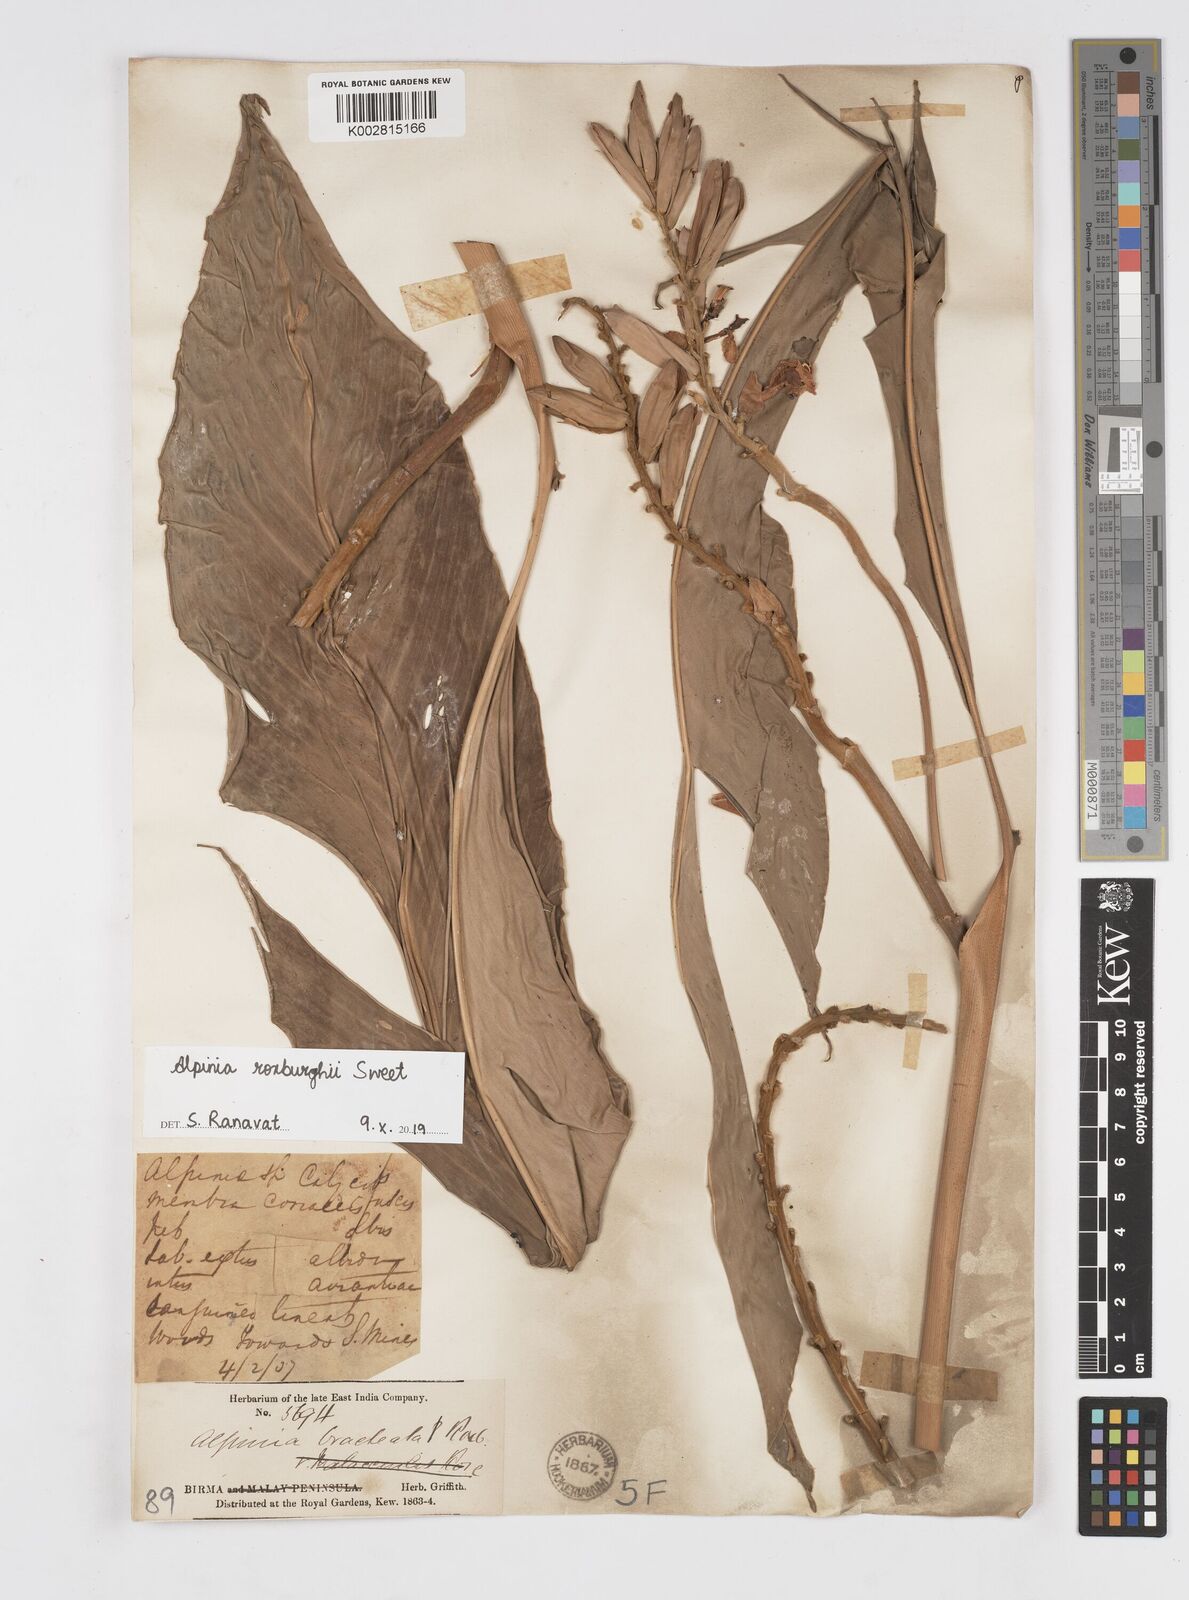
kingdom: Plantae
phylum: Tracheophyta
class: Liliopsida
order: Zingiberales
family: Zingiberaceae
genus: Alpinia
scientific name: Alpinia roxburghii
